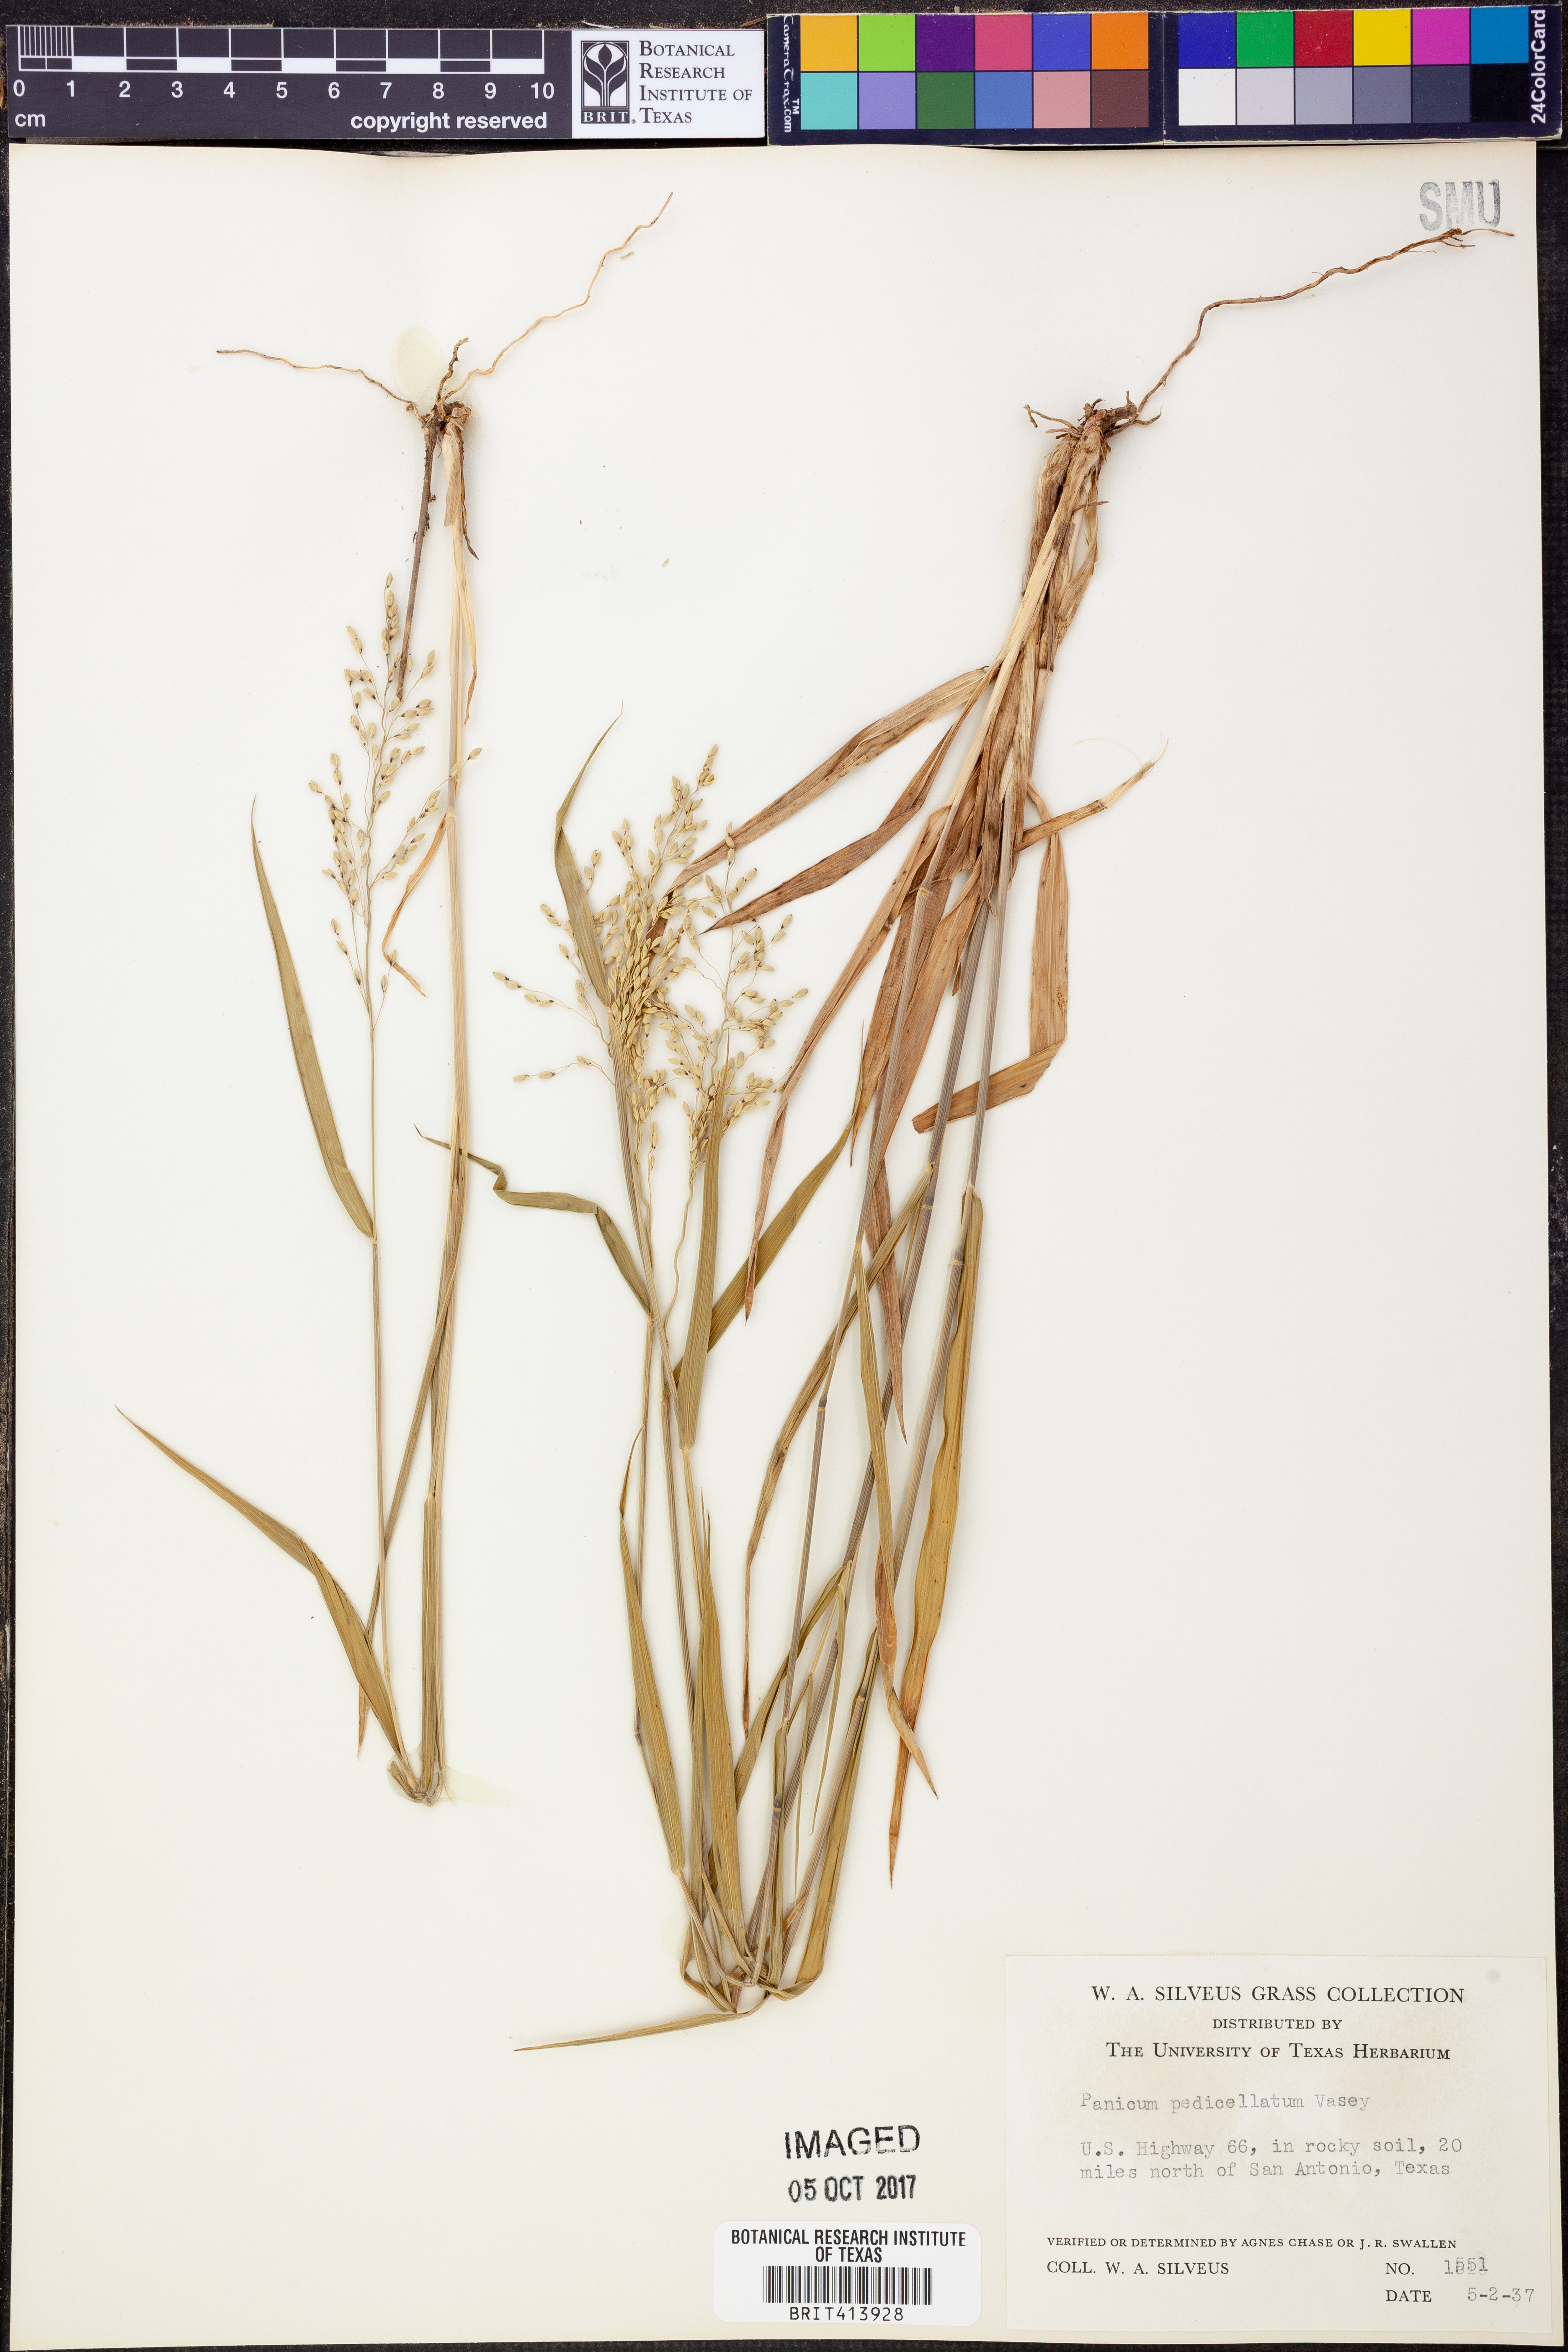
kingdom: Plantae
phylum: Tracheophyta
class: Liliopsida
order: Poales
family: Poaceae
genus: Dichanthelium
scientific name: Dichanthelium transiens
